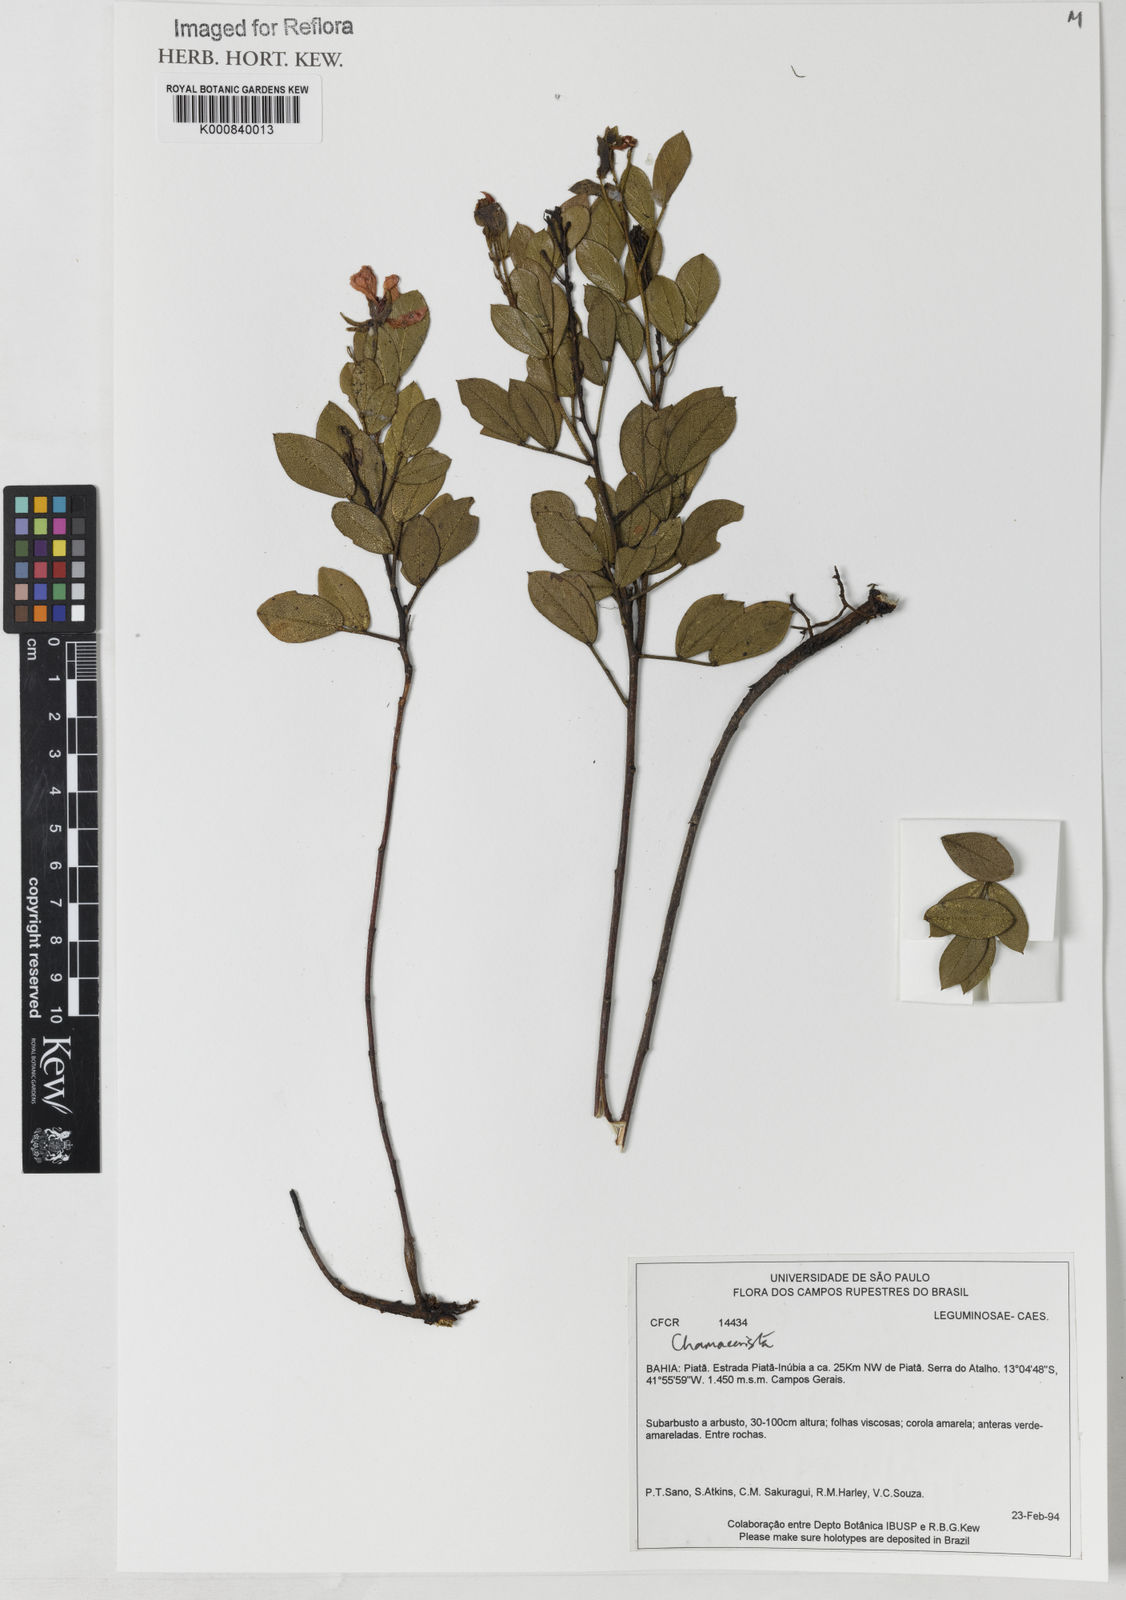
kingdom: Plantae
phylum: Tracheophyta
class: Magnoliopsida
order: Fabales
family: Fabaceae
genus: Chamaecrista
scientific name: Chamaecrista punctulifera
